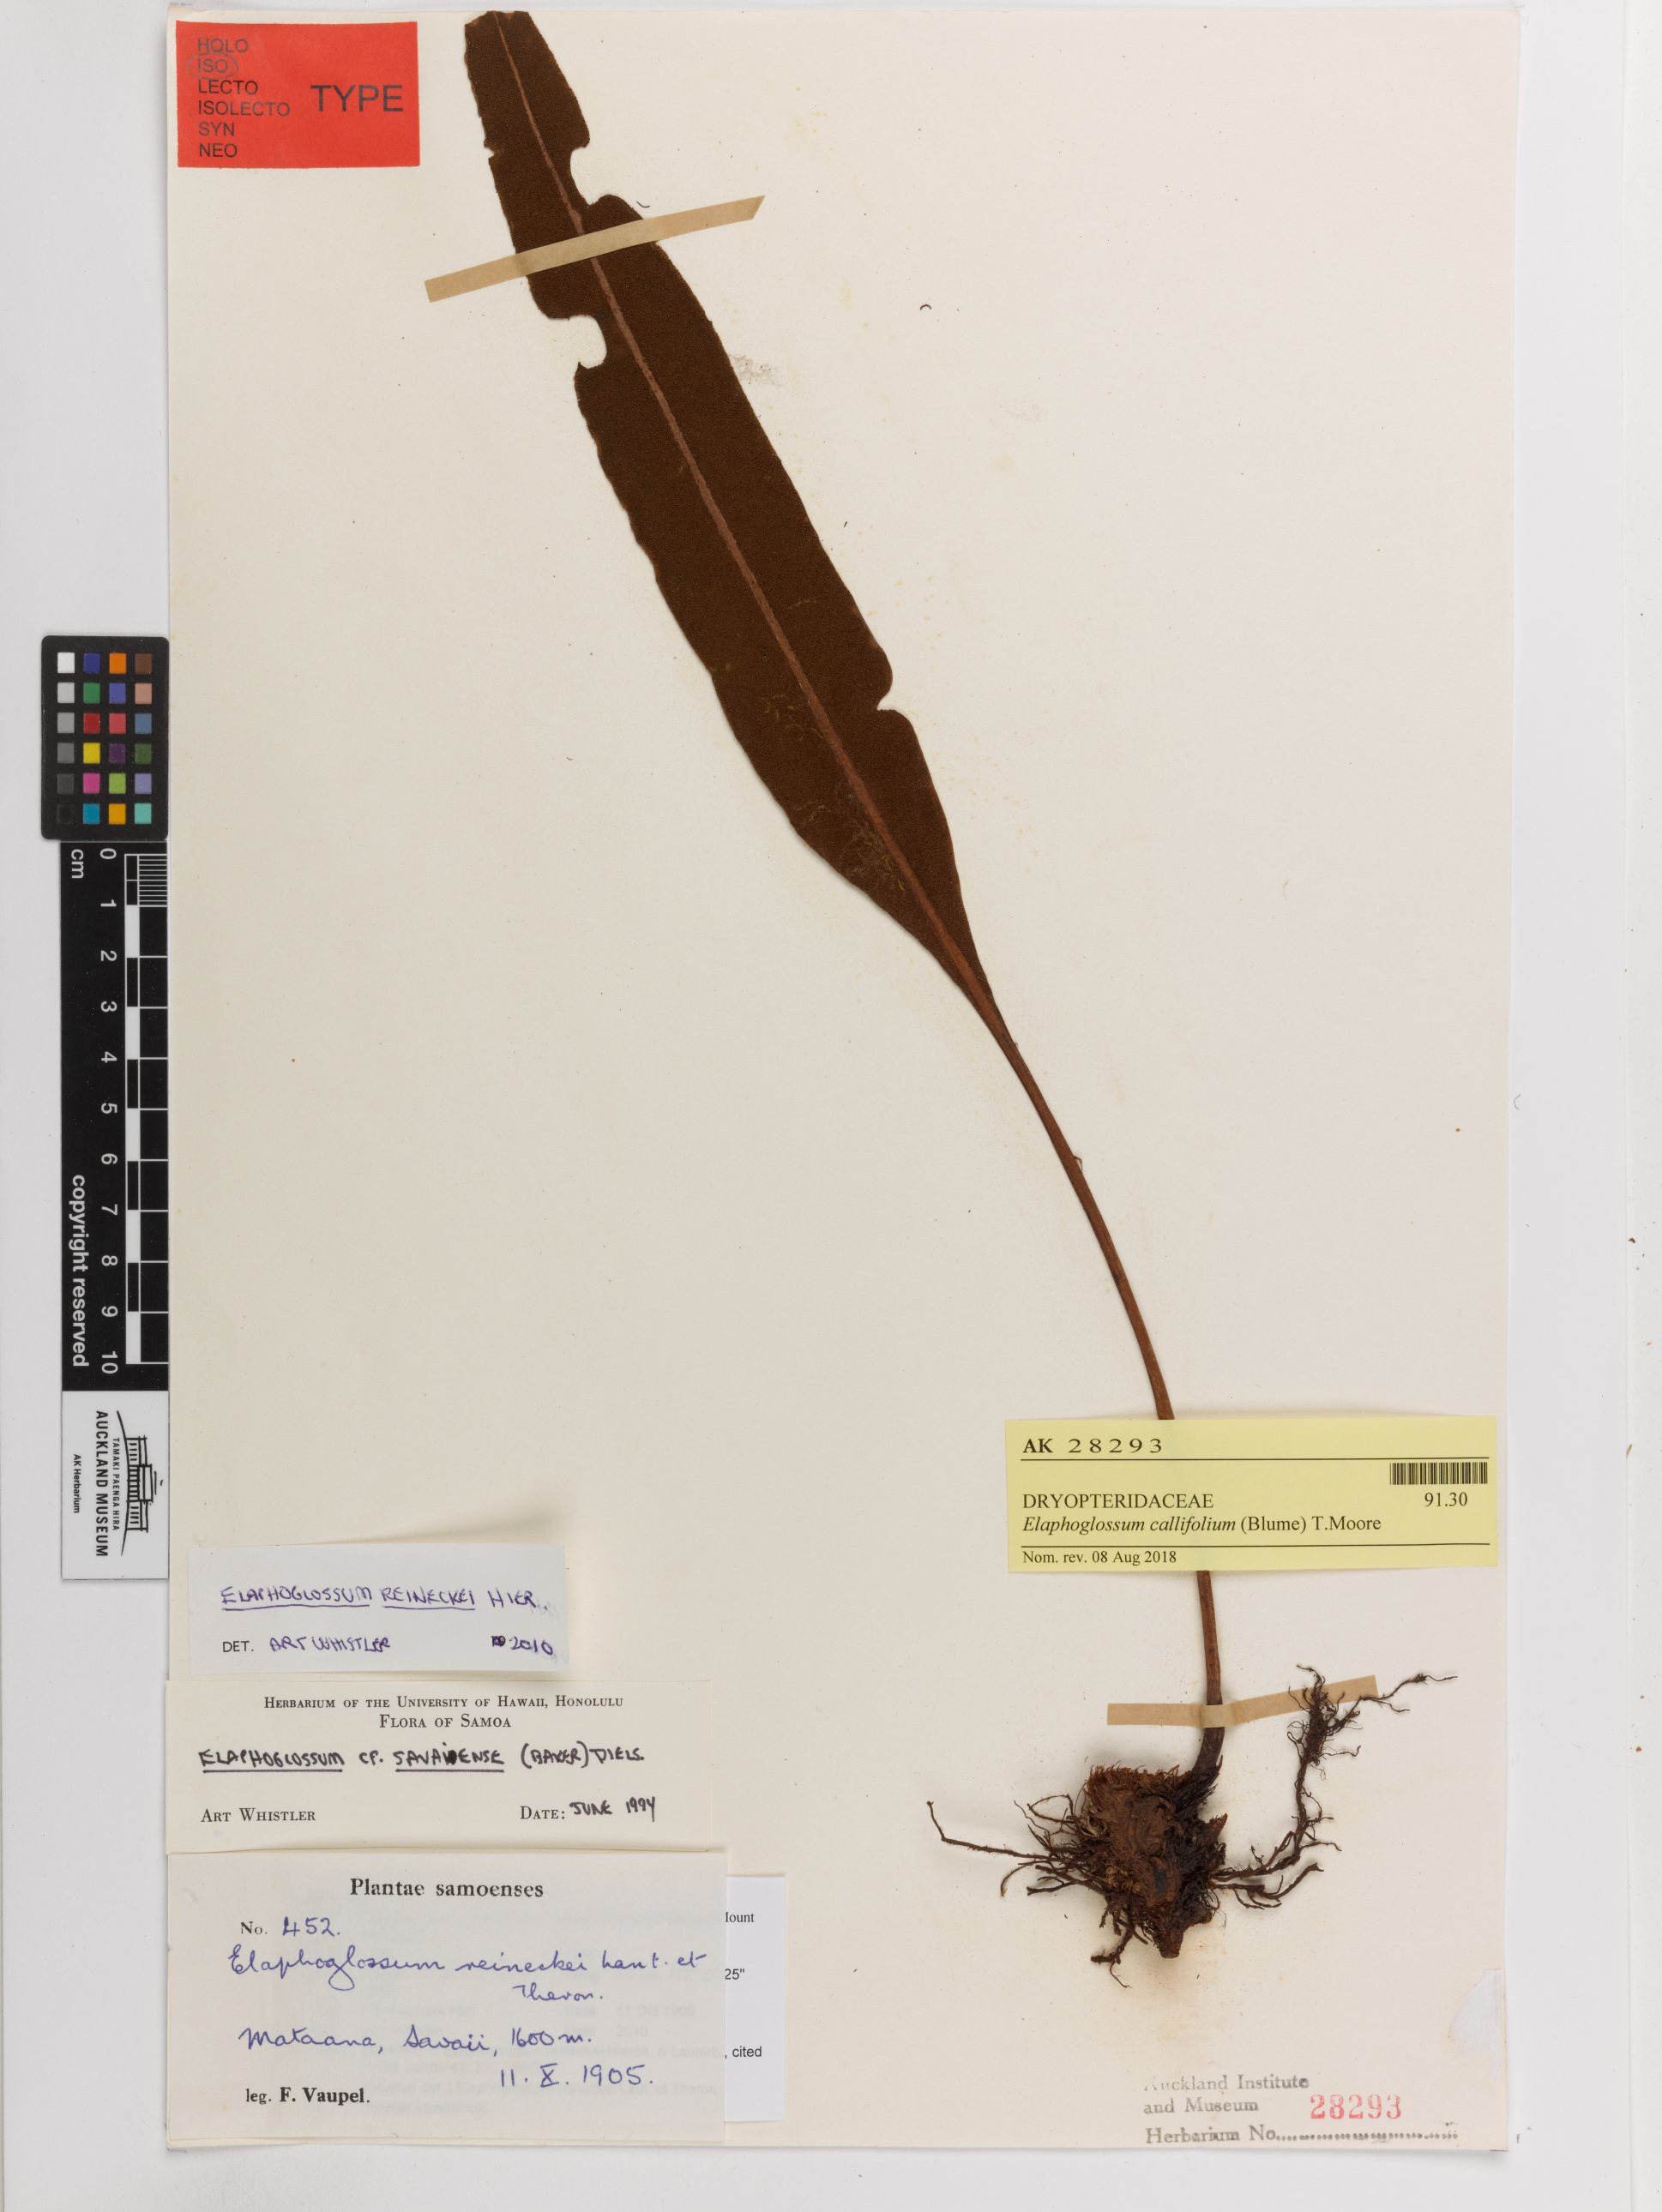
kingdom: Plantae
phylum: Tracheophyta
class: Polypodiopsida
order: Polypodiales
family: Dryopteridaceae
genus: Elaphoglossum
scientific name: Elaphoglossum callifolium
